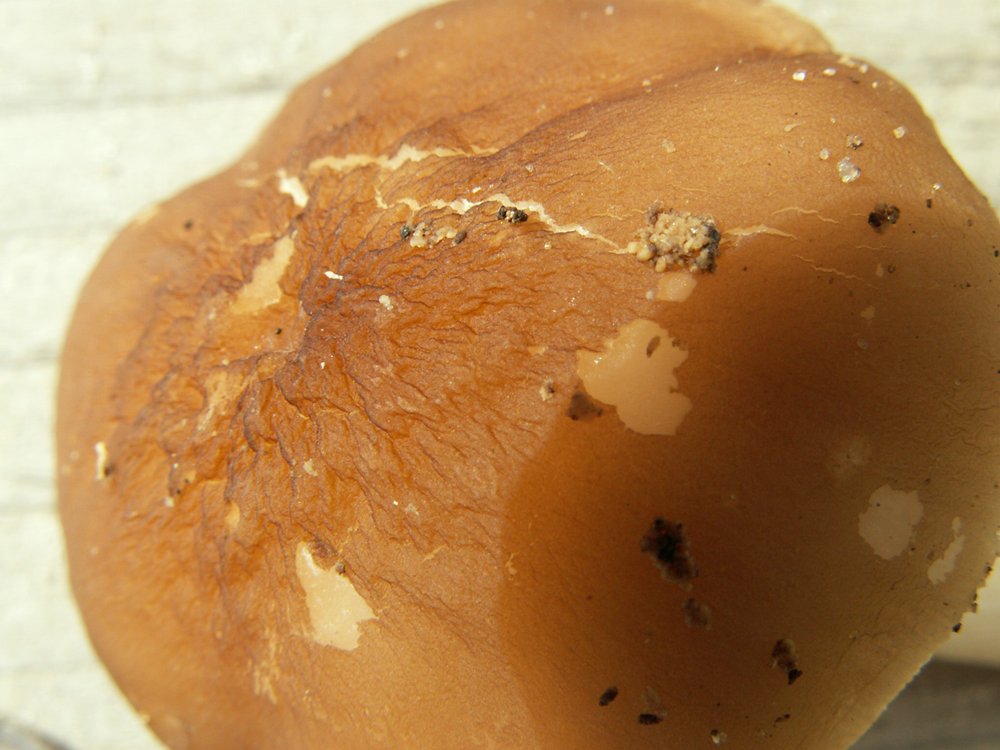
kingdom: Fungi
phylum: Basidiomycota
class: Agaricomycetes
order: Agaricales
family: Pluteaceae
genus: Pluteus
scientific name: Pluteus phlebophorus
